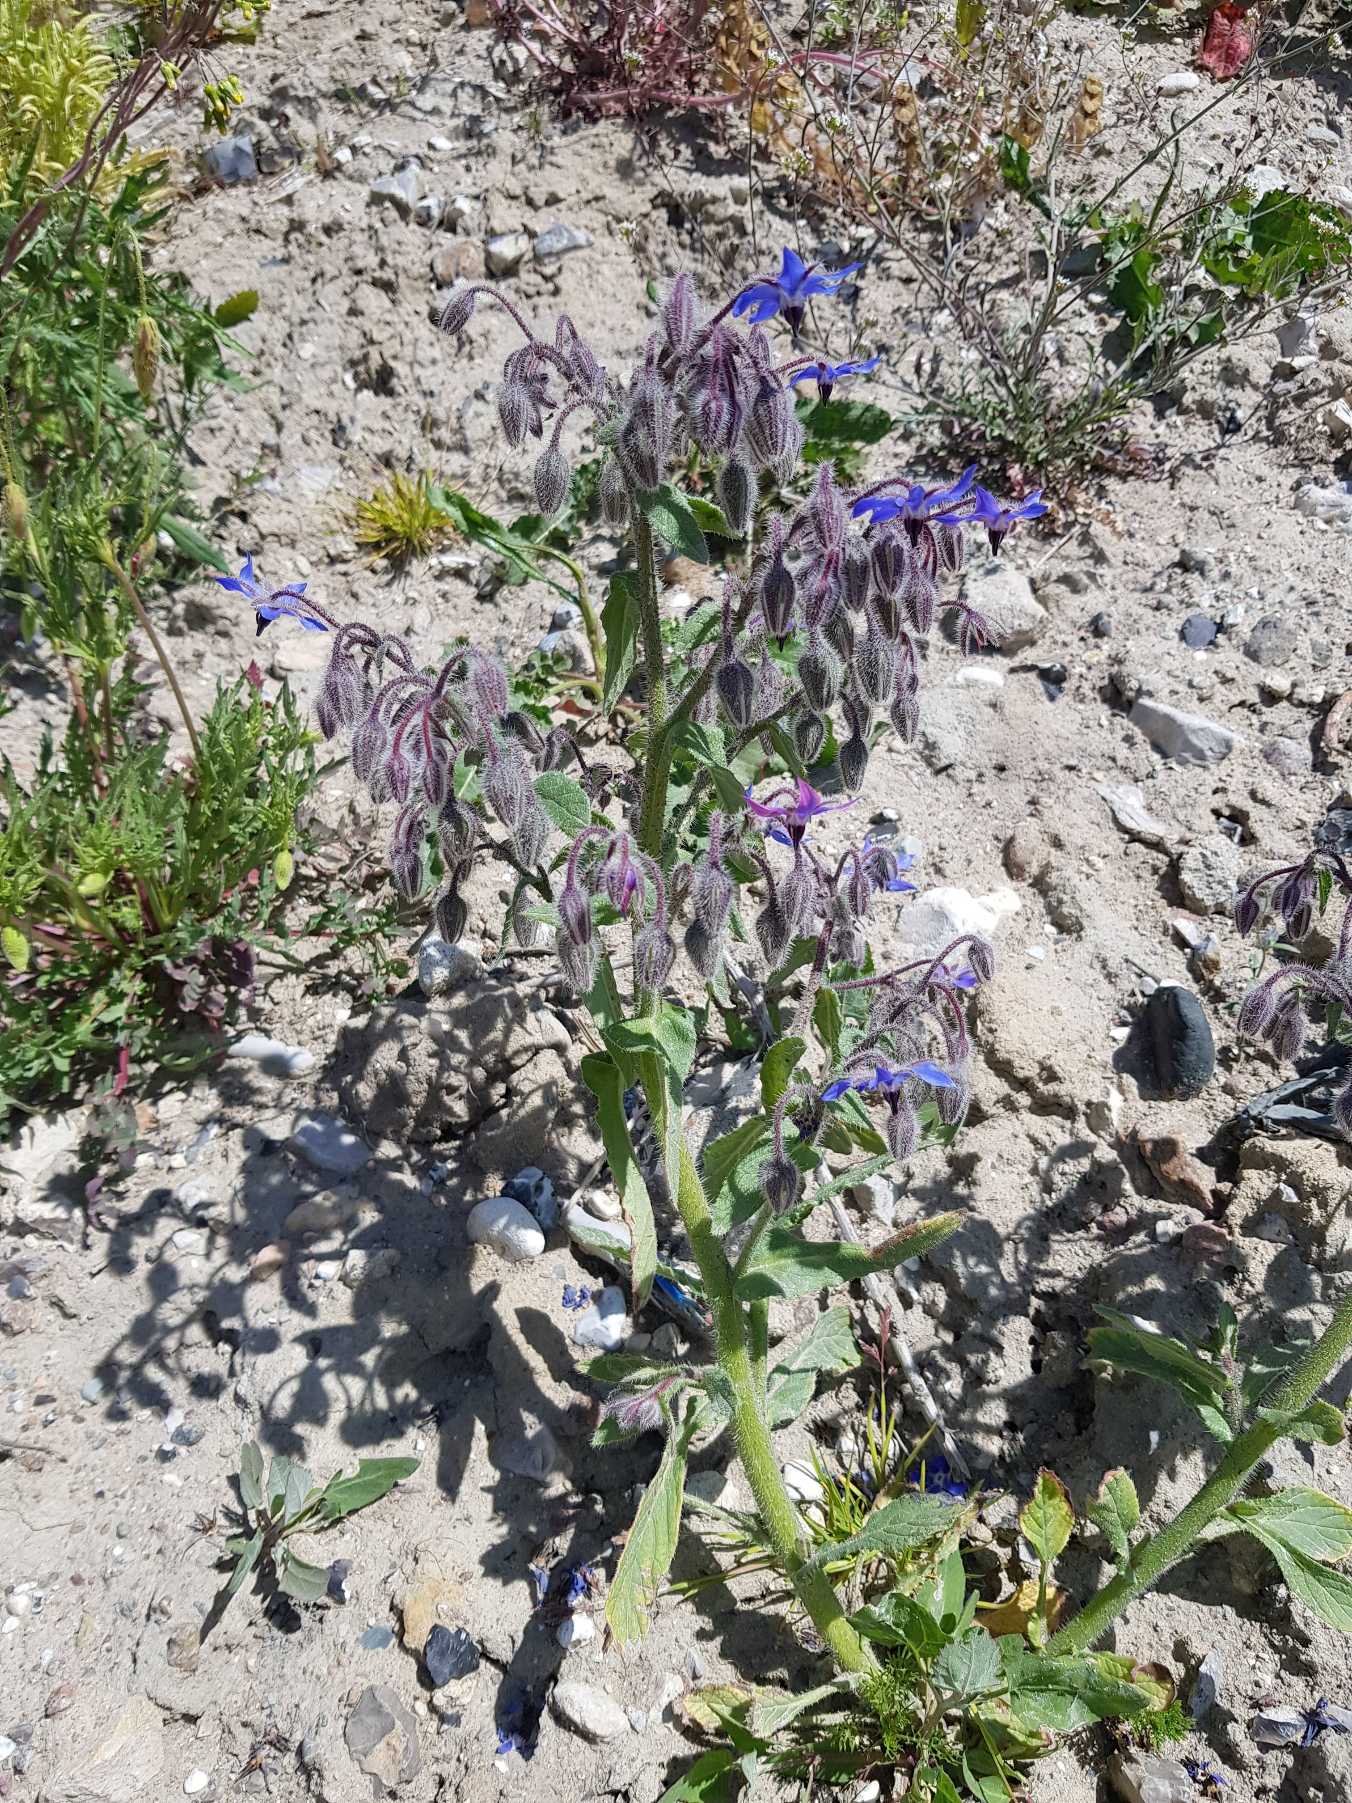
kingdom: Plantae
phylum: Tracheophyta
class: Magnoliopsida
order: Boraginales
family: Boraginaceae
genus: Borago
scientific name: Borago officinalis
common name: Hjulkrone
